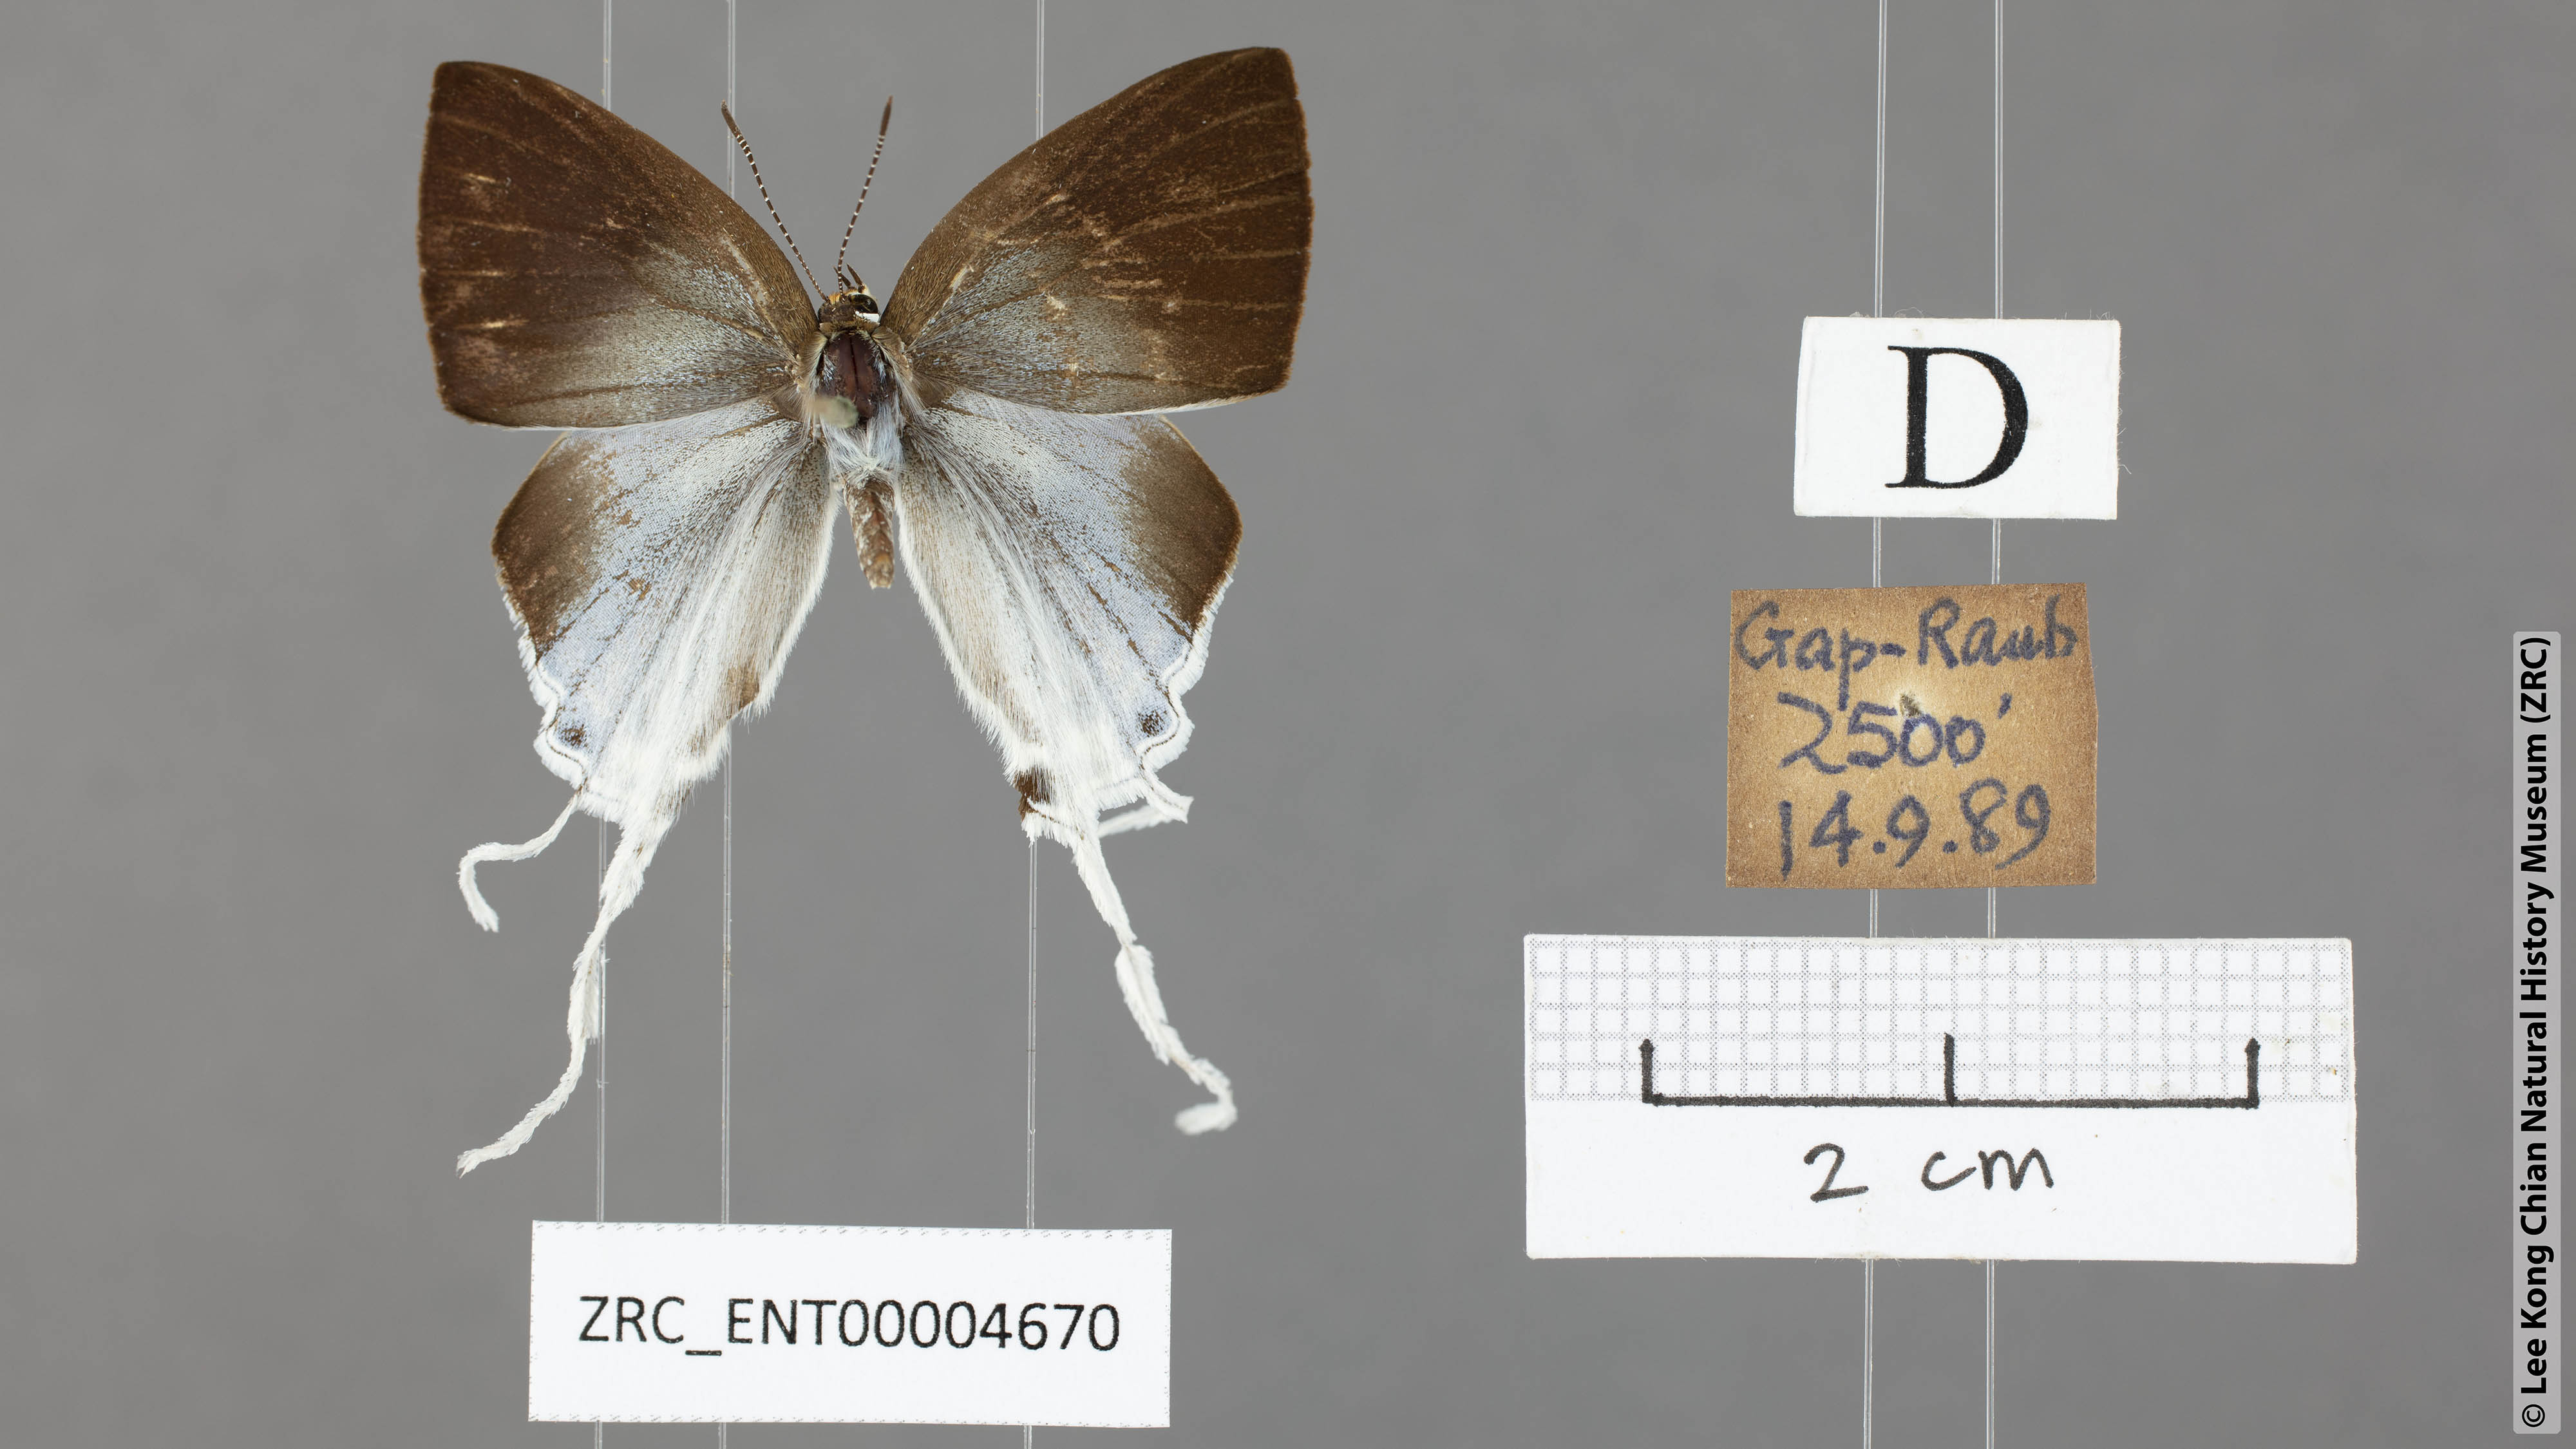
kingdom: Animalia
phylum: Arthropoda
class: Insecta
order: Lepidoptera
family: Lycaenidae
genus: Zeltus
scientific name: Zeltus amasa
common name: Fluffy tit
